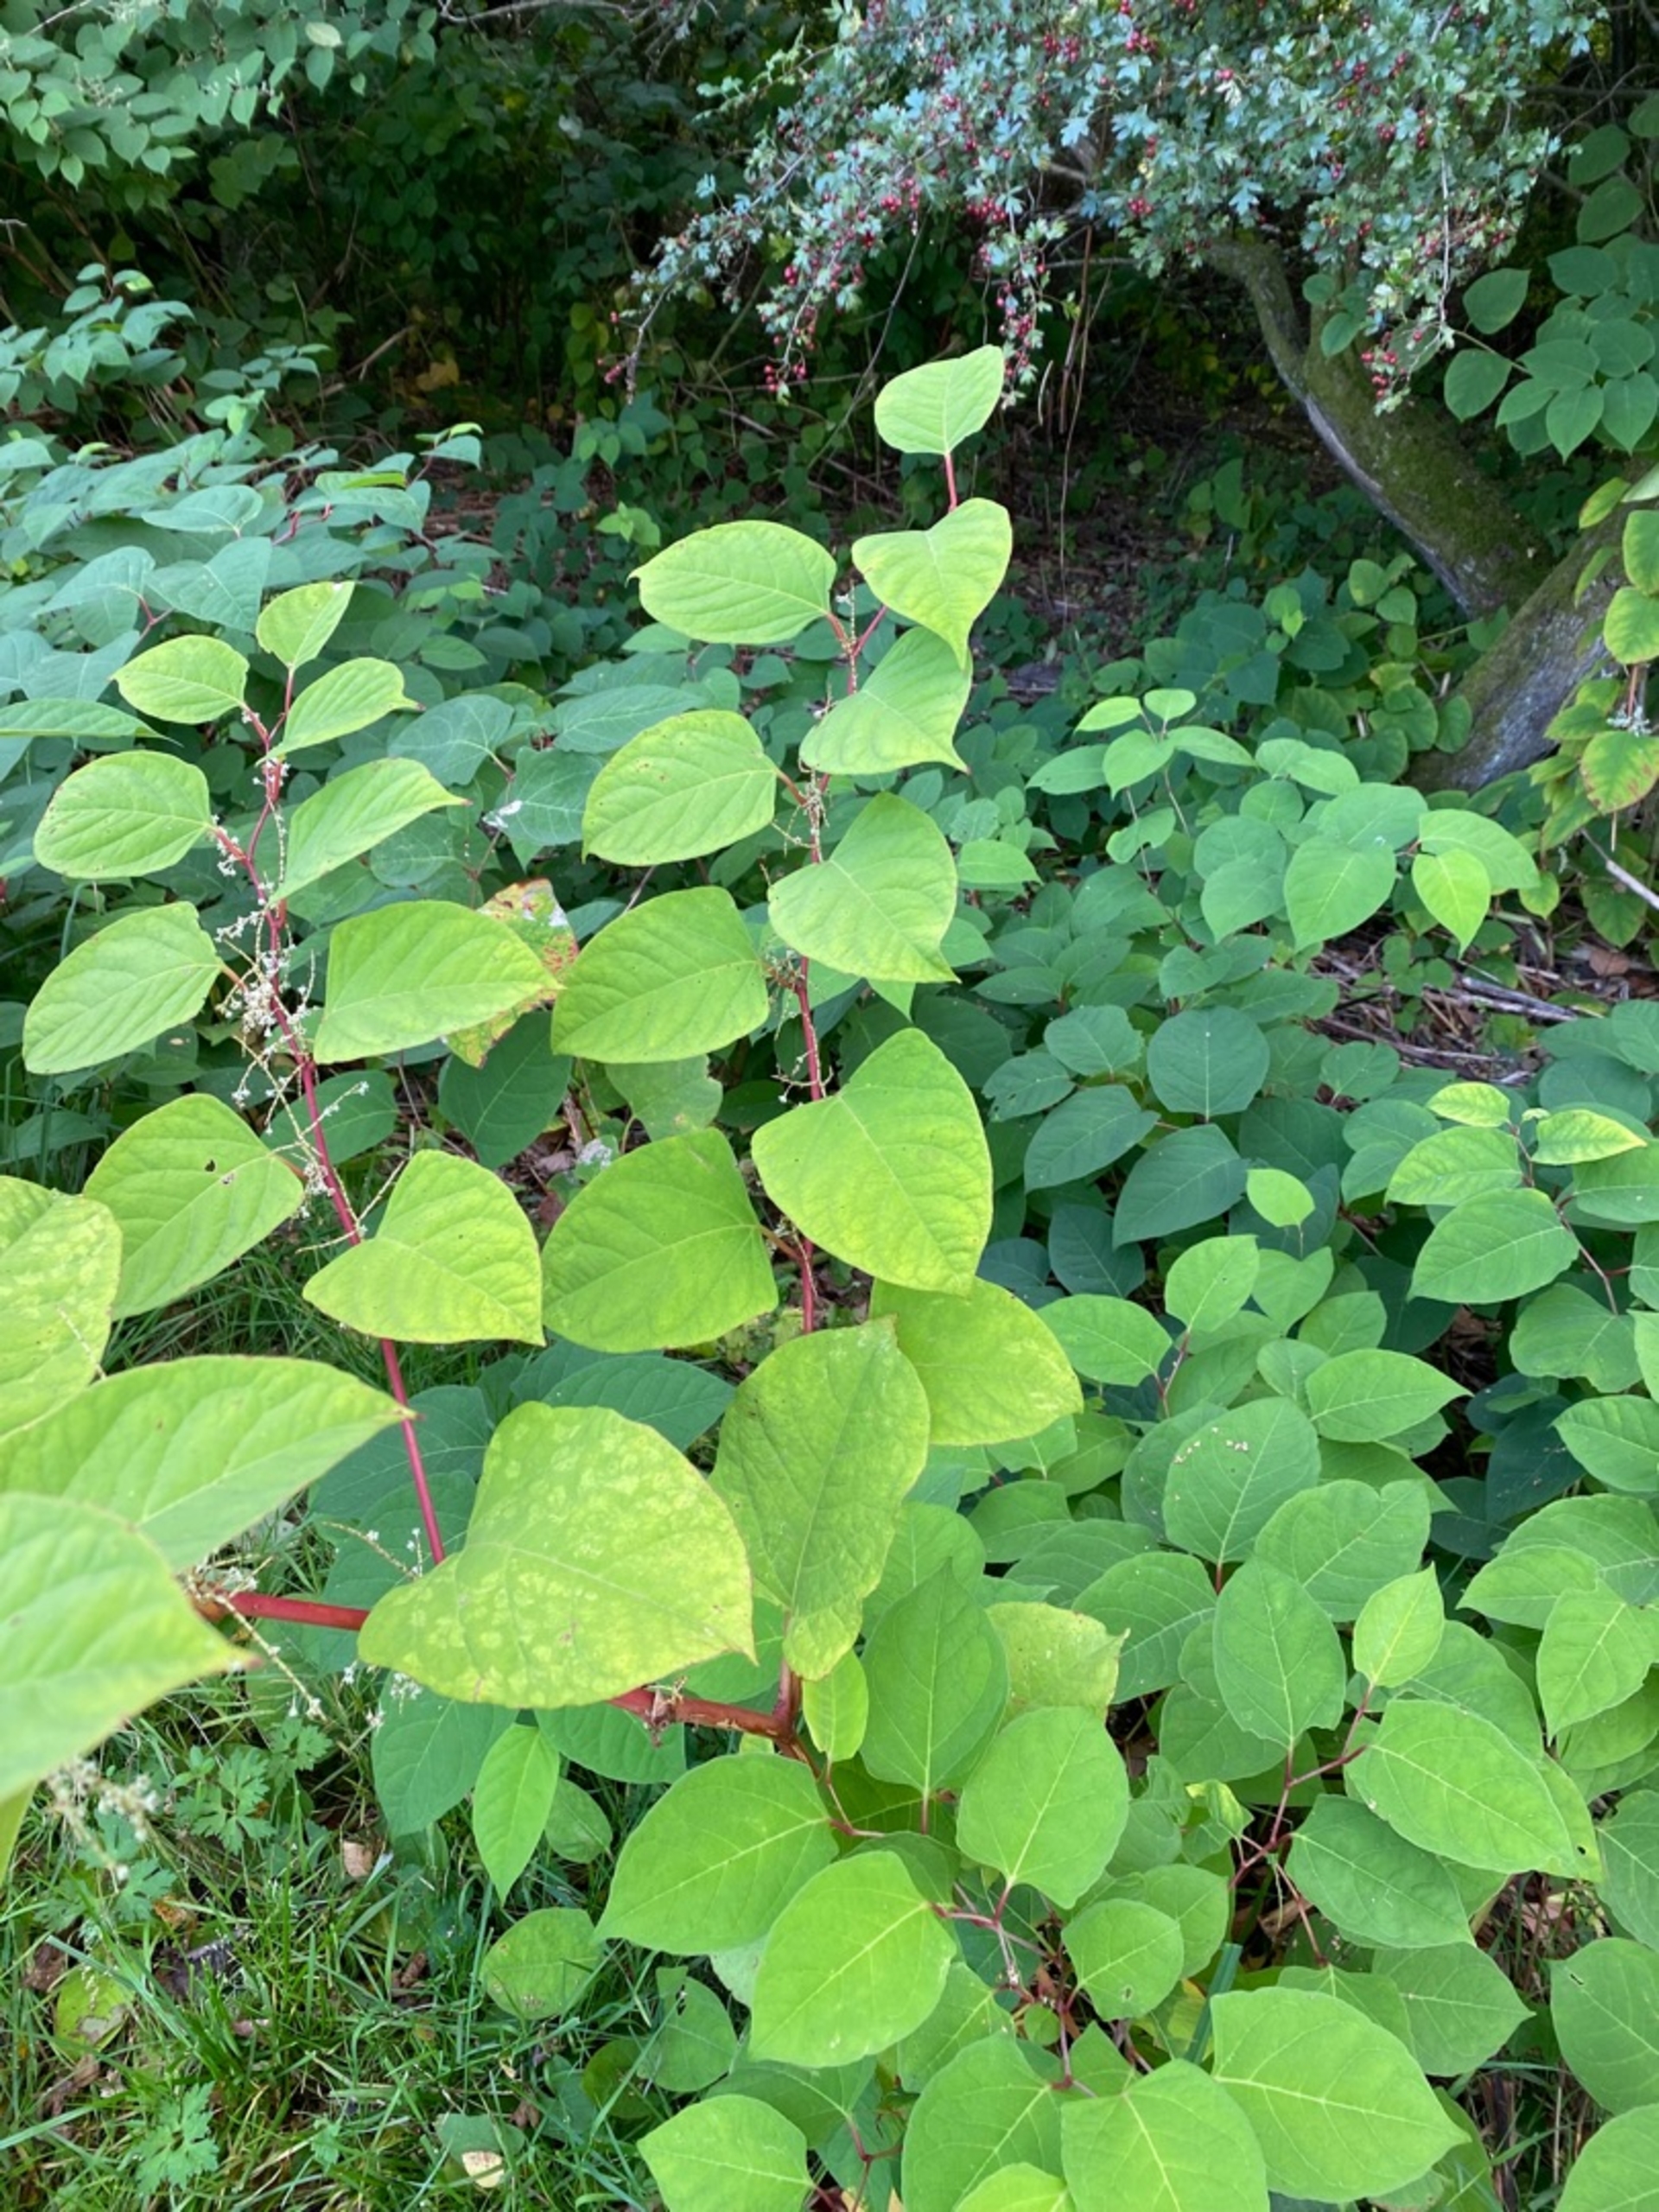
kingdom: Plantae
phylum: Tracheophyta
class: Magnoliopsida
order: Caryophyllales
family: Polygonaceae
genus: Reynoutria
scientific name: Reynoutria japonica
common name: Japan-pileurt
